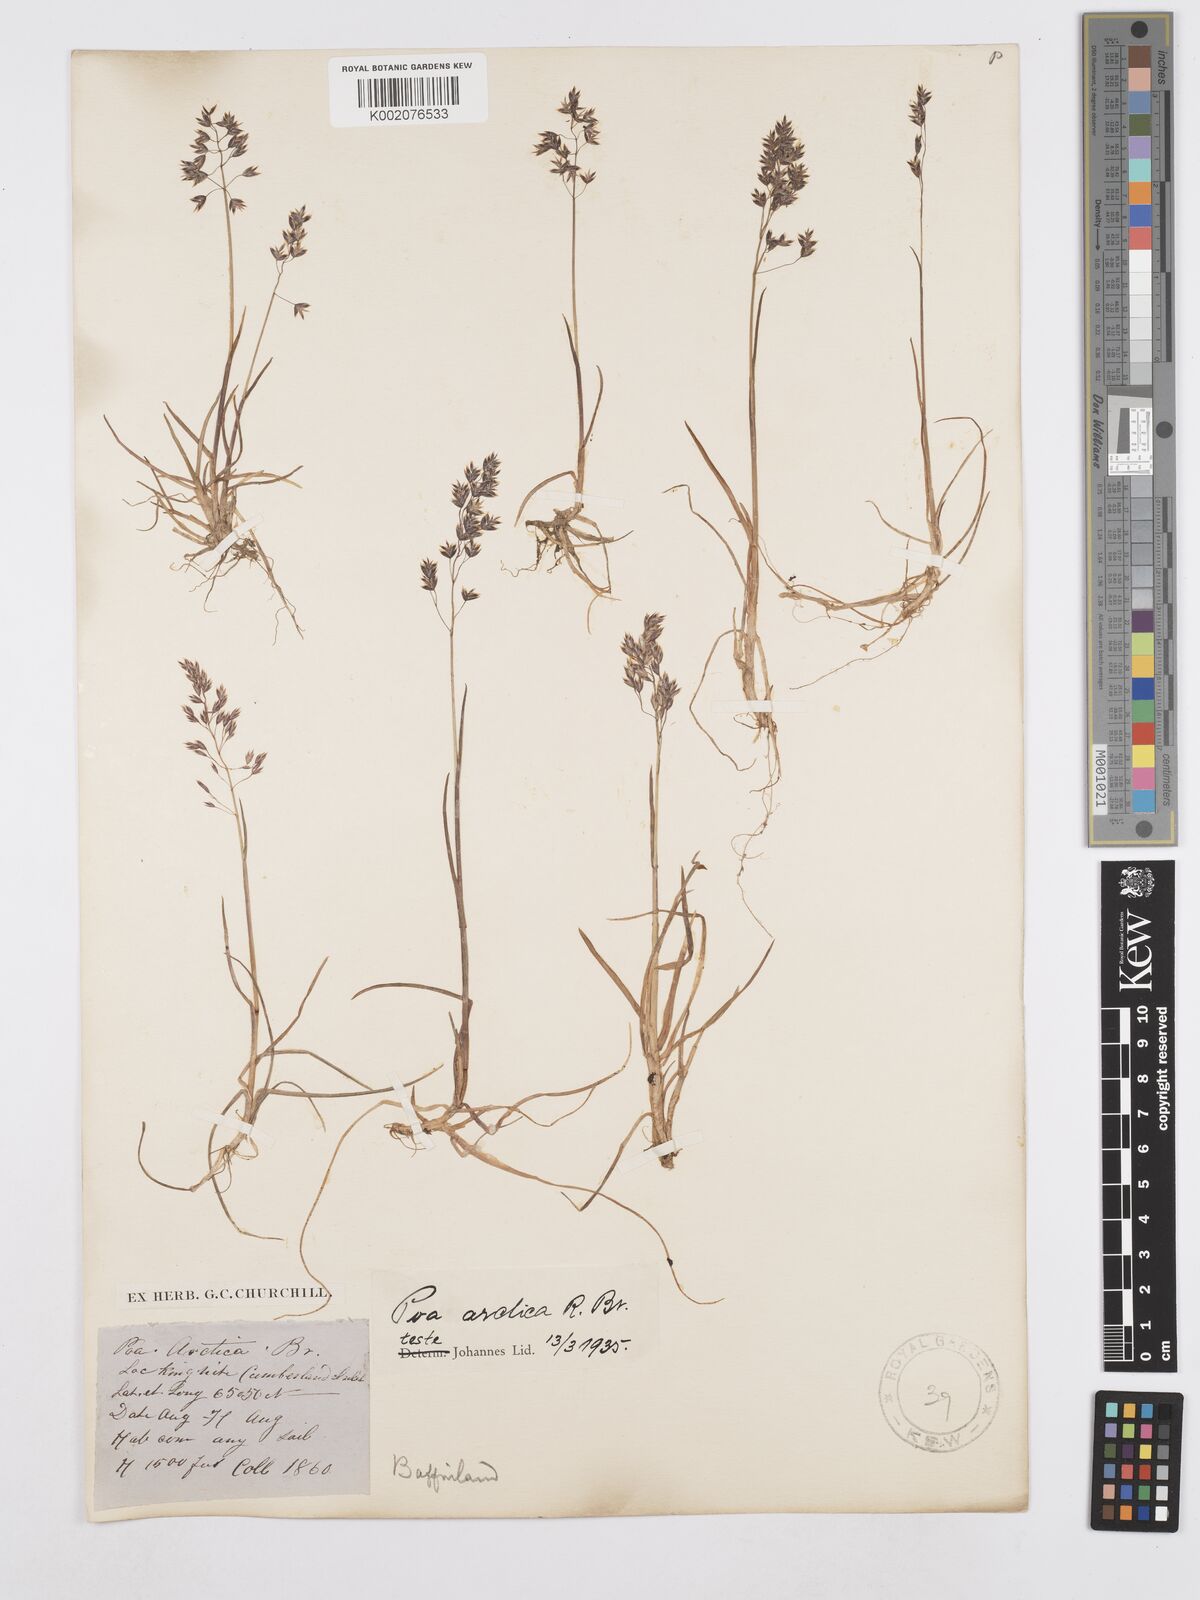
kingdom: Plantae
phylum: Tracheophyta
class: Liliopsida
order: Poales
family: Poaceae
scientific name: Poaceae
